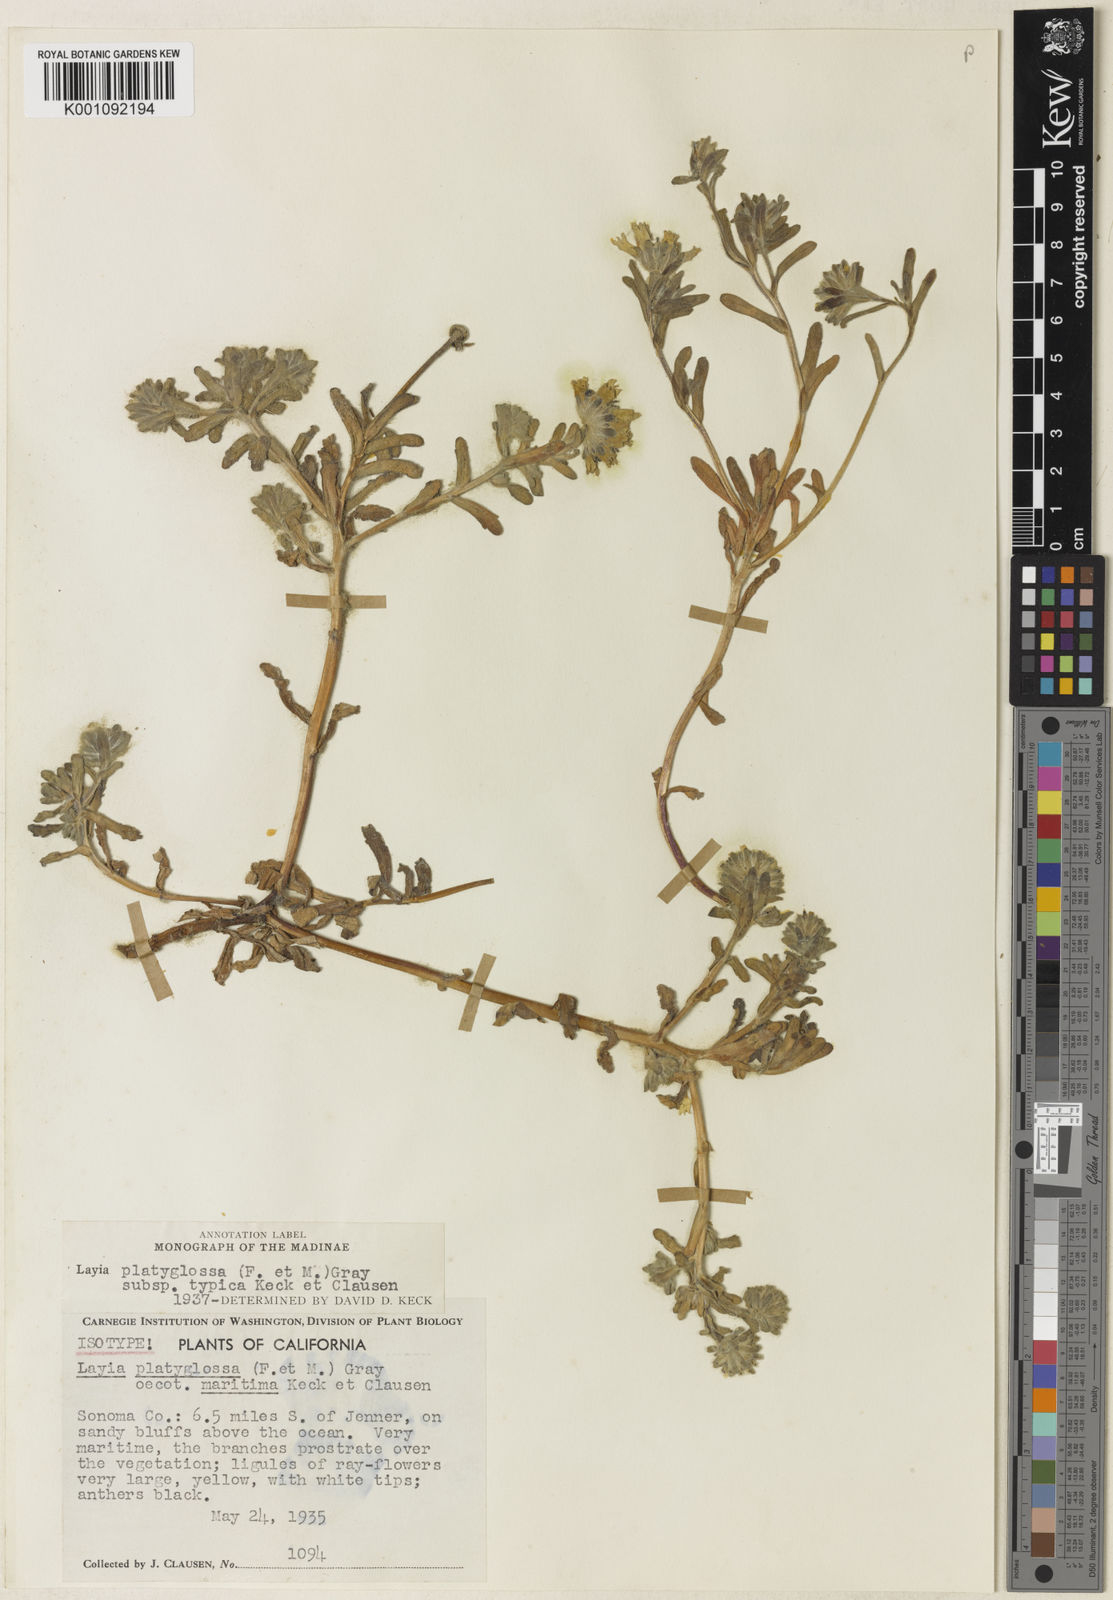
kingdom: Plantae
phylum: Tracheophyta
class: Magnoliopsida
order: Asterales
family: Asteraceae
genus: Layia
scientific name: Layia platyglossa
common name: Tidy-tips
